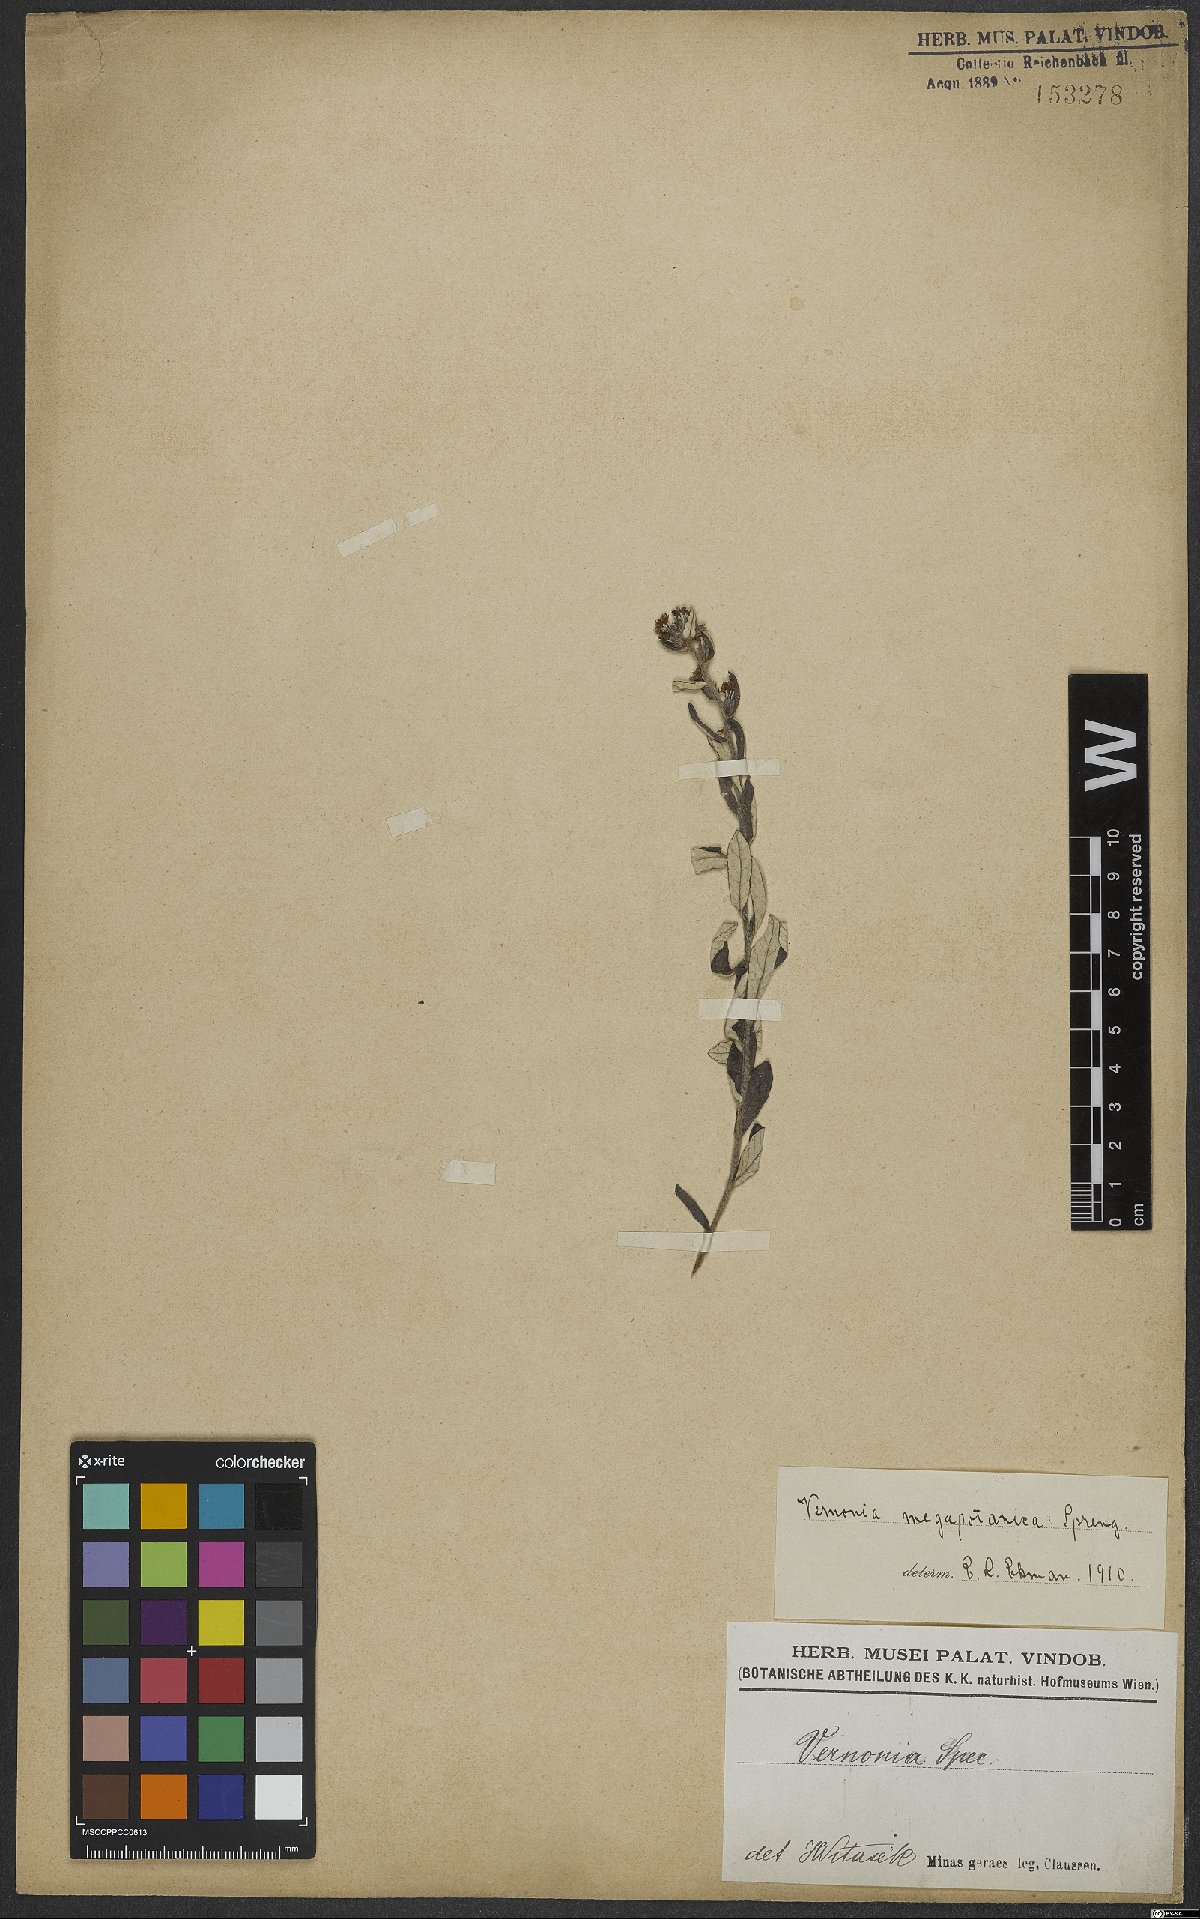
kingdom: Plantae
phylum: Tracheophyta
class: Magnoliopsida
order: Asterales
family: Asteraceae
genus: Stenocephalum
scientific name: Stenocephalum megapotamicum
